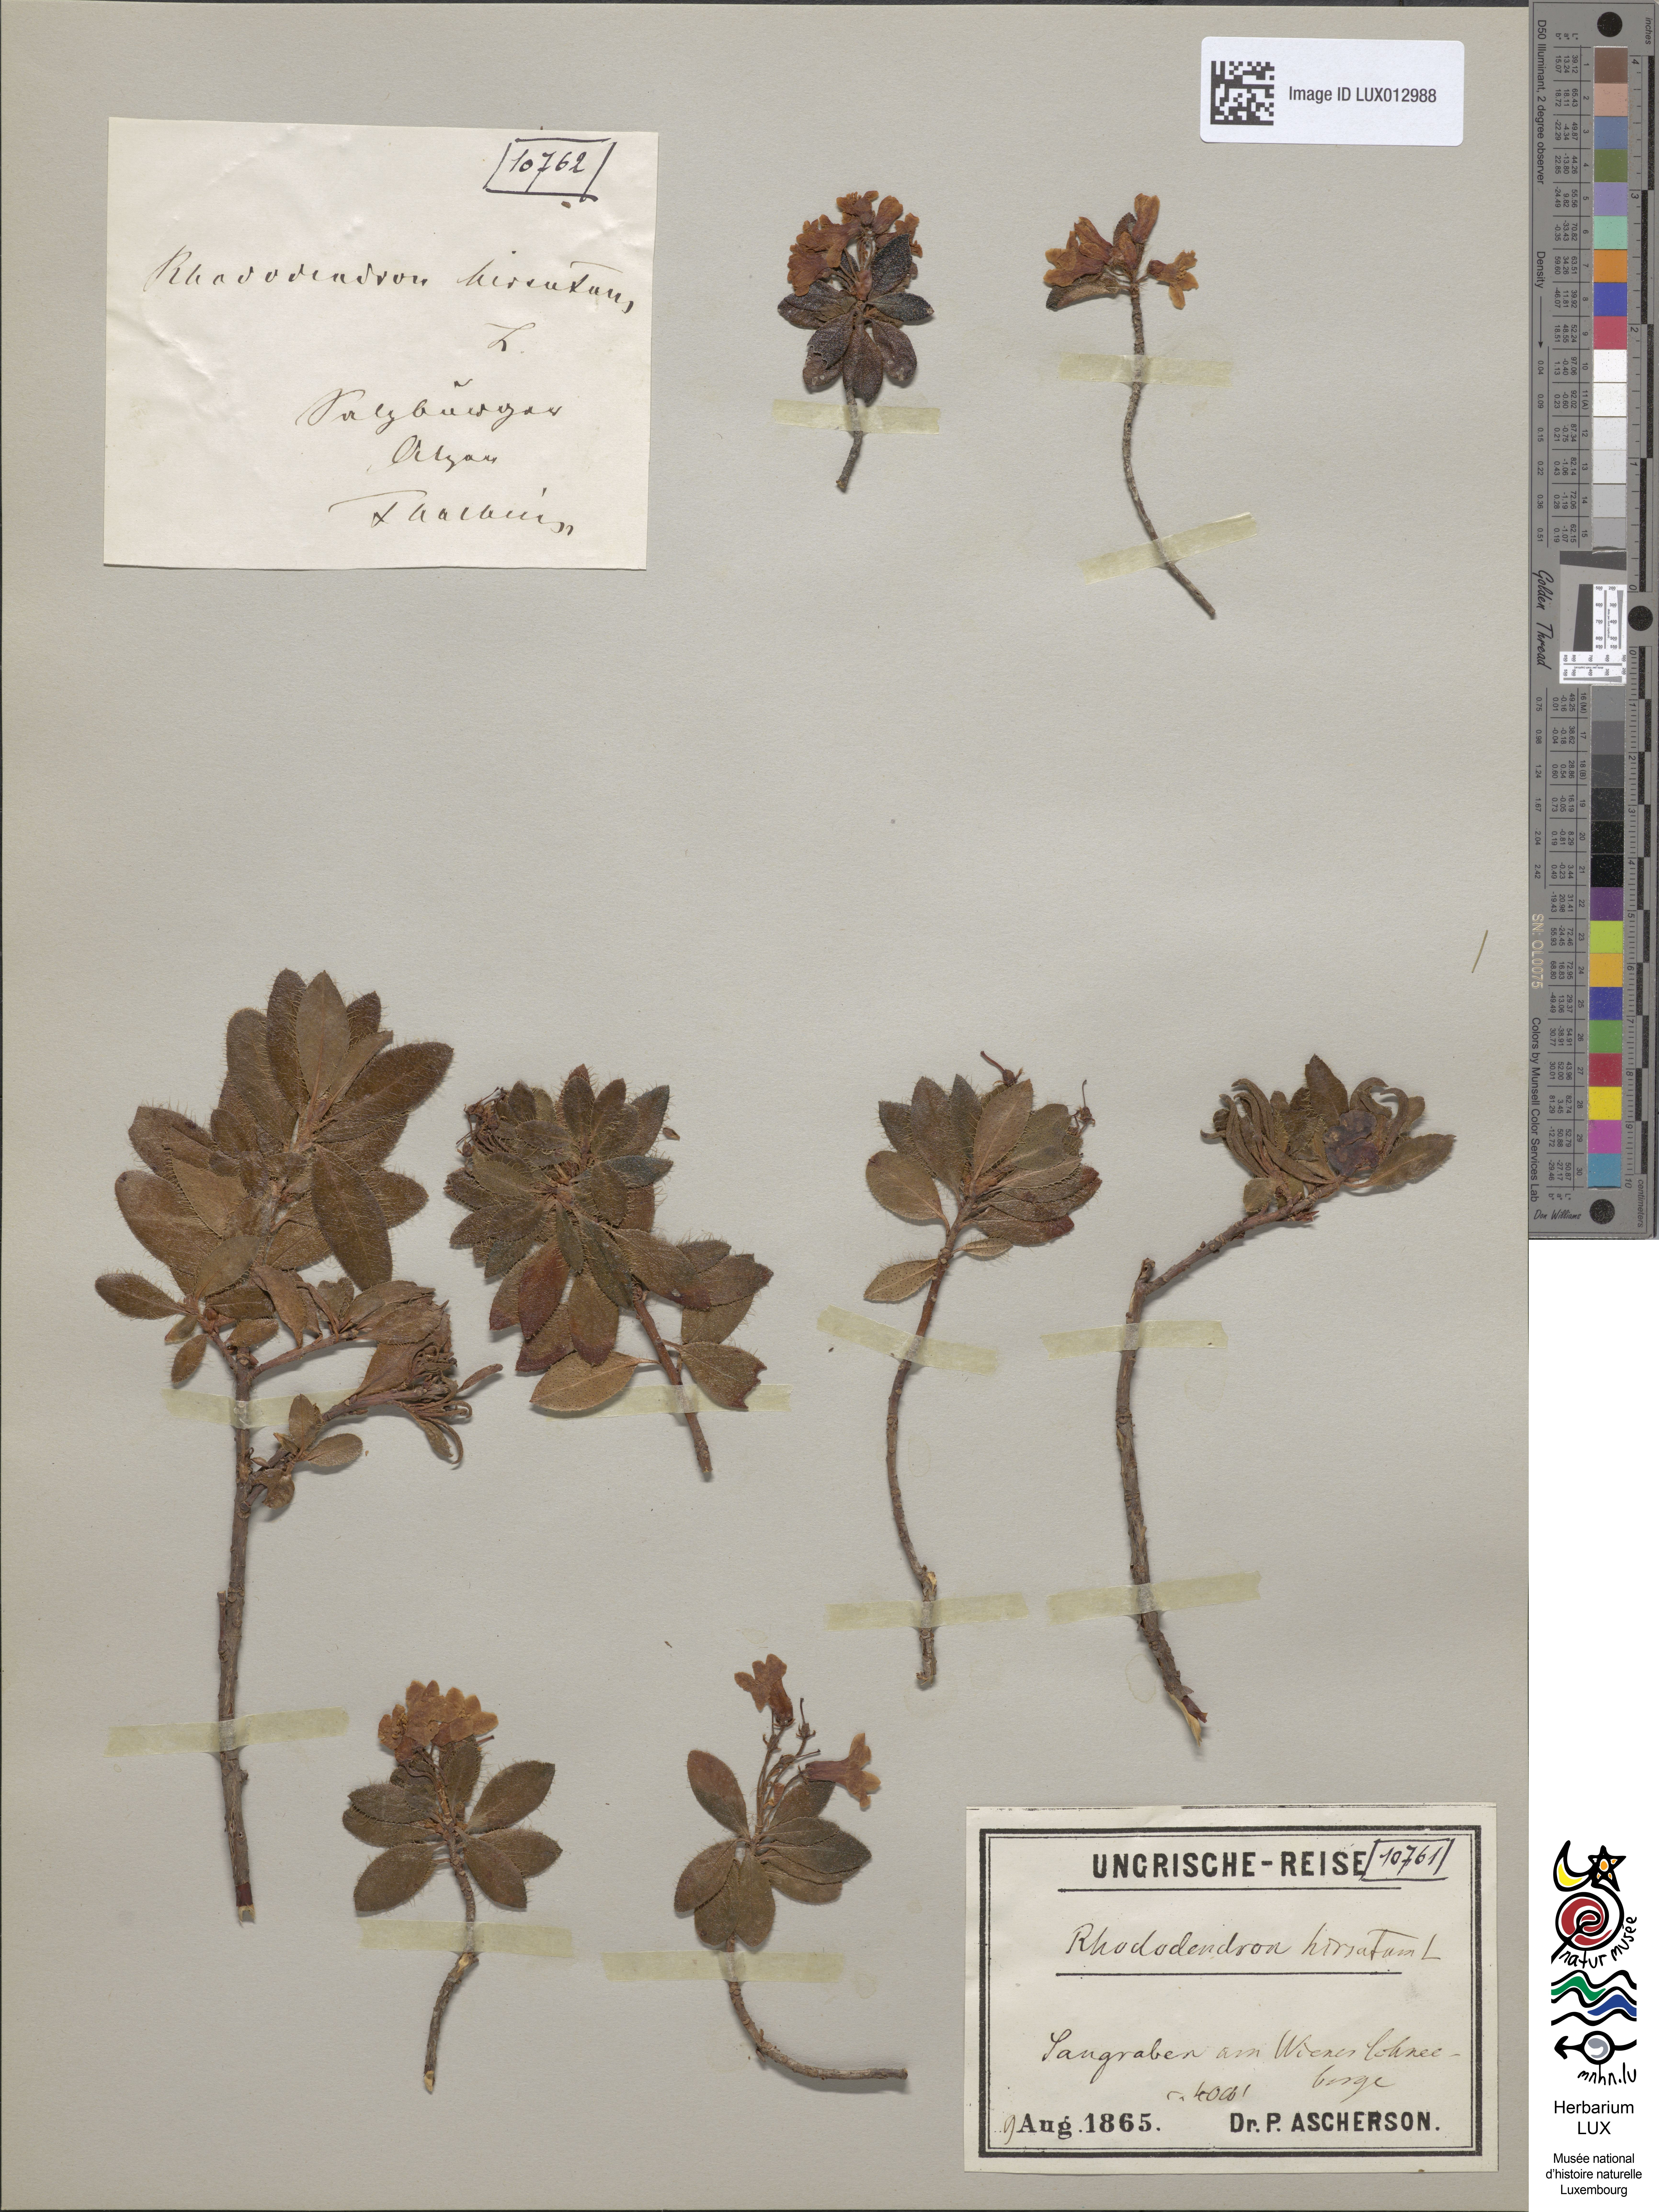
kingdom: Plantae
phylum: Tracheophyta
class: Magnoliopsida
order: Ericales
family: Ericaceae
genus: Vaccinium
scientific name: Vaccinium uliginosum
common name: Bog bilberry
